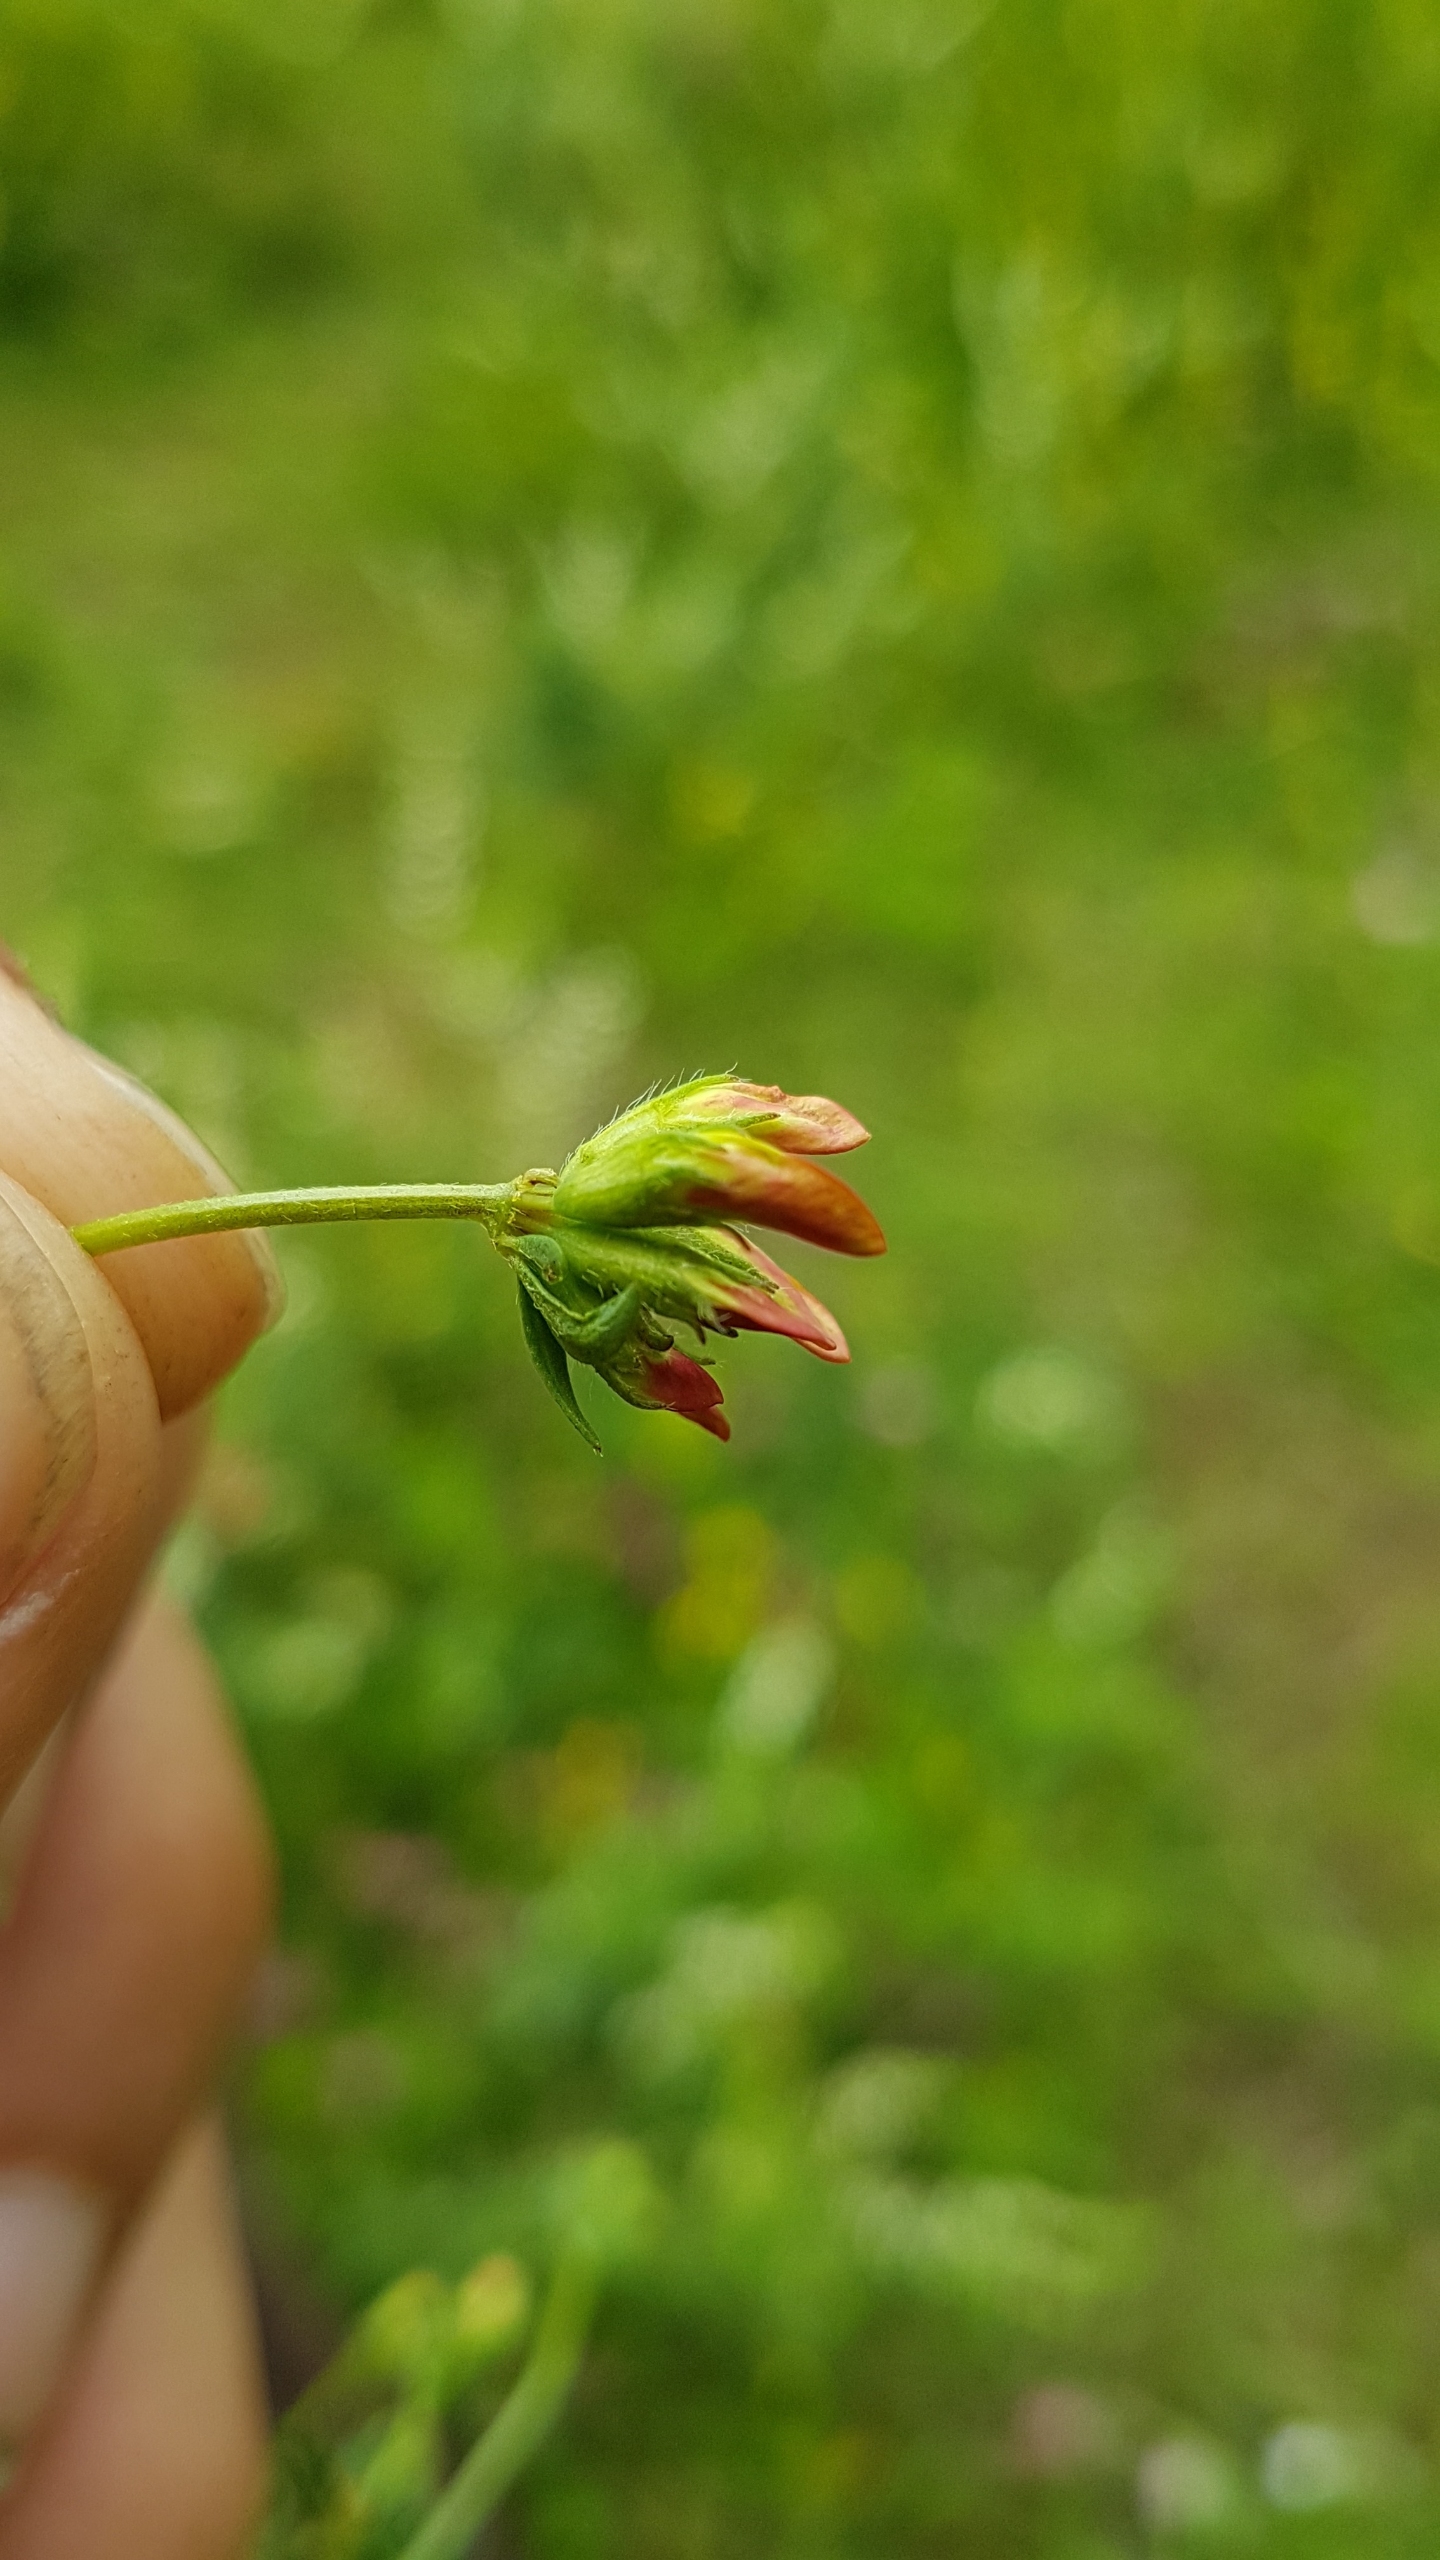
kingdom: Plantae
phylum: Tracheophyta
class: Magnoliopsida
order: Fabales
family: Fabaceae
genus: Lotus
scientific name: Lotus corniculatus
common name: Almindelig kællingetand
